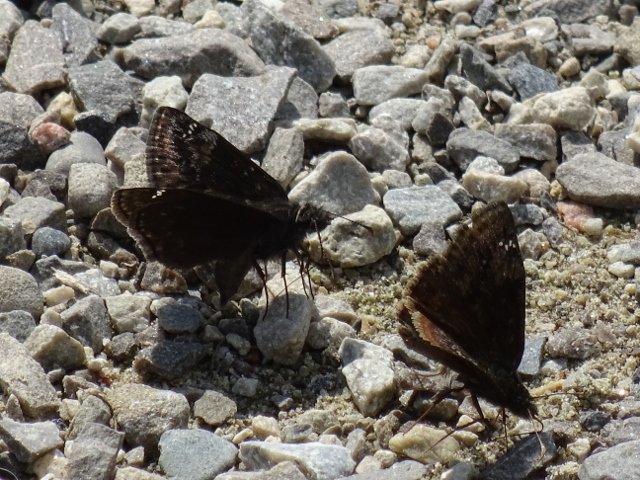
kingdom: Animalia
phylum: Arthropoda
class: Insecta
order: Lepidoptera
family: Hesperiidae
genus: Gesta
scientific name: Gesta
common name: Wild Indigo Duskywing
